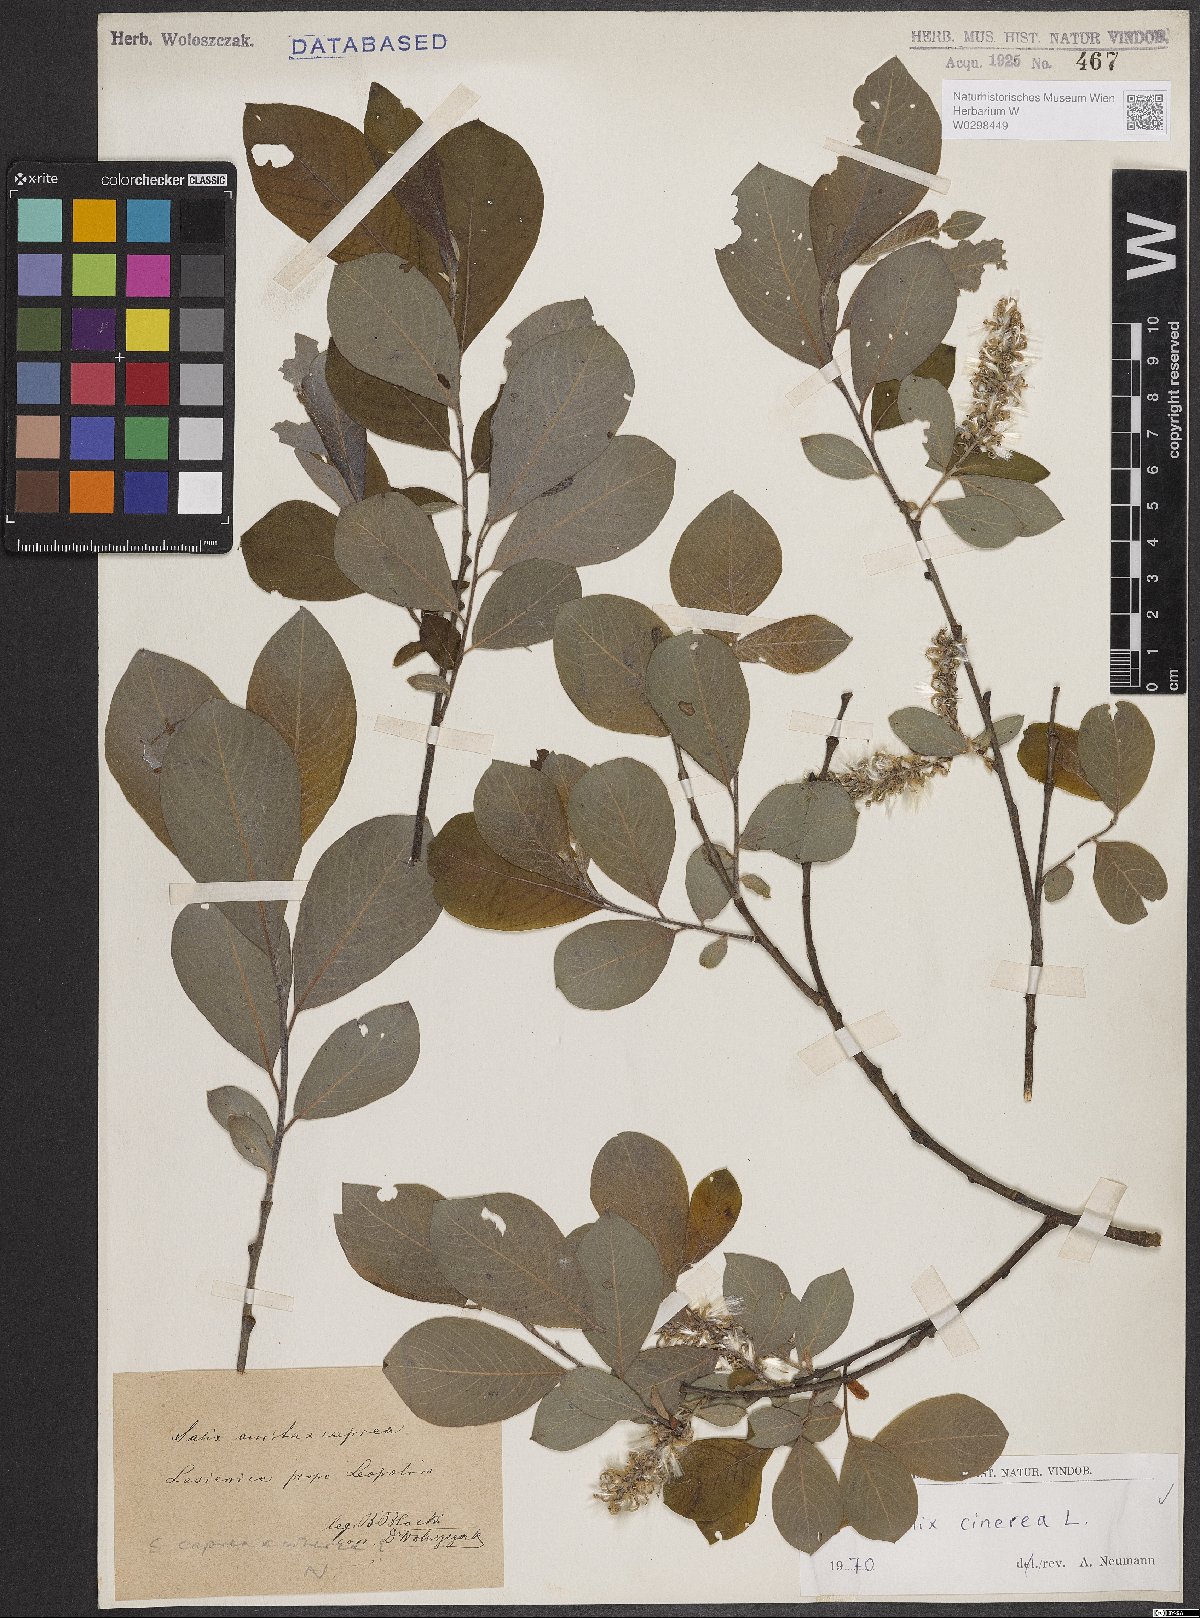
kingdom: Plantae
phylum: Tracheophyta
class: Magnoliopsida
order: Malpighiales
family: Salicaceae
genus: Salix
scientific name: Salix cinerea
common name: Common sallow
